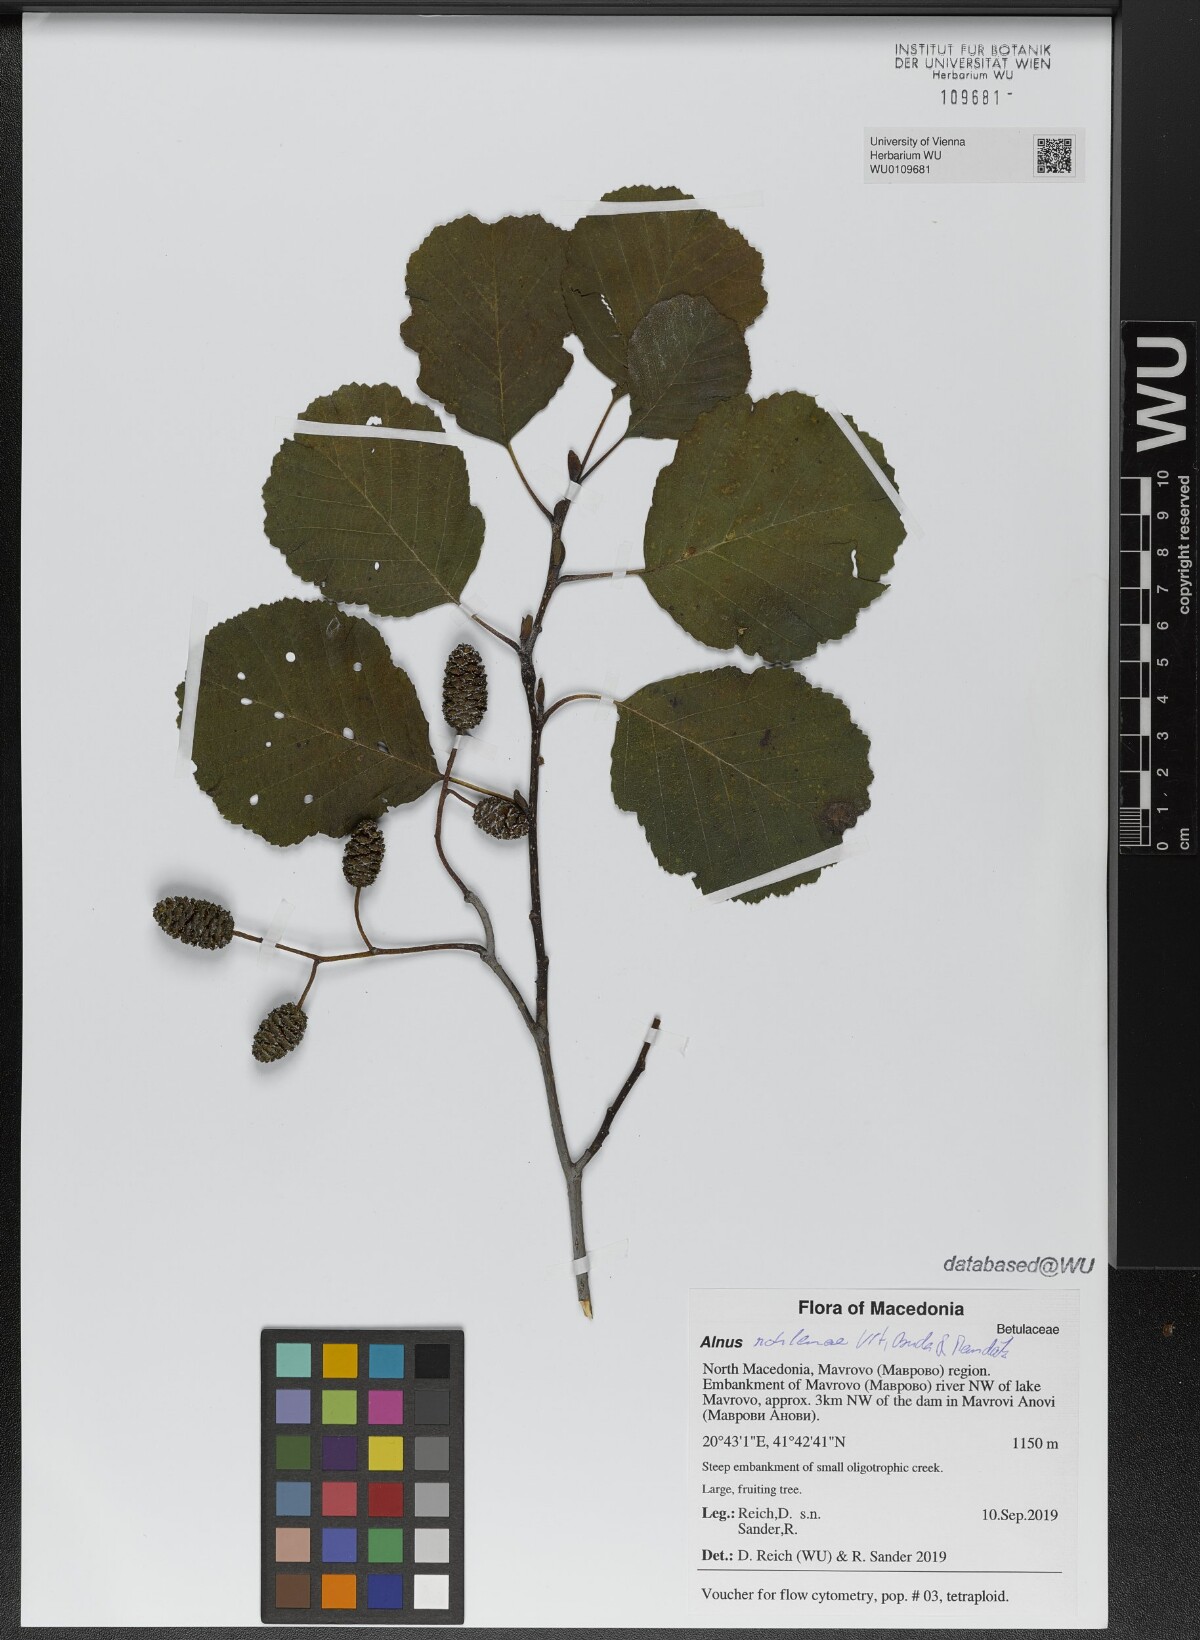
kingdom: Plantae
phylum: Tracheophyta
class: Magnoliopsida
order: Fagales
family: Betulaceae
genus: Alnus
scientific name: Alnus rohlenae
